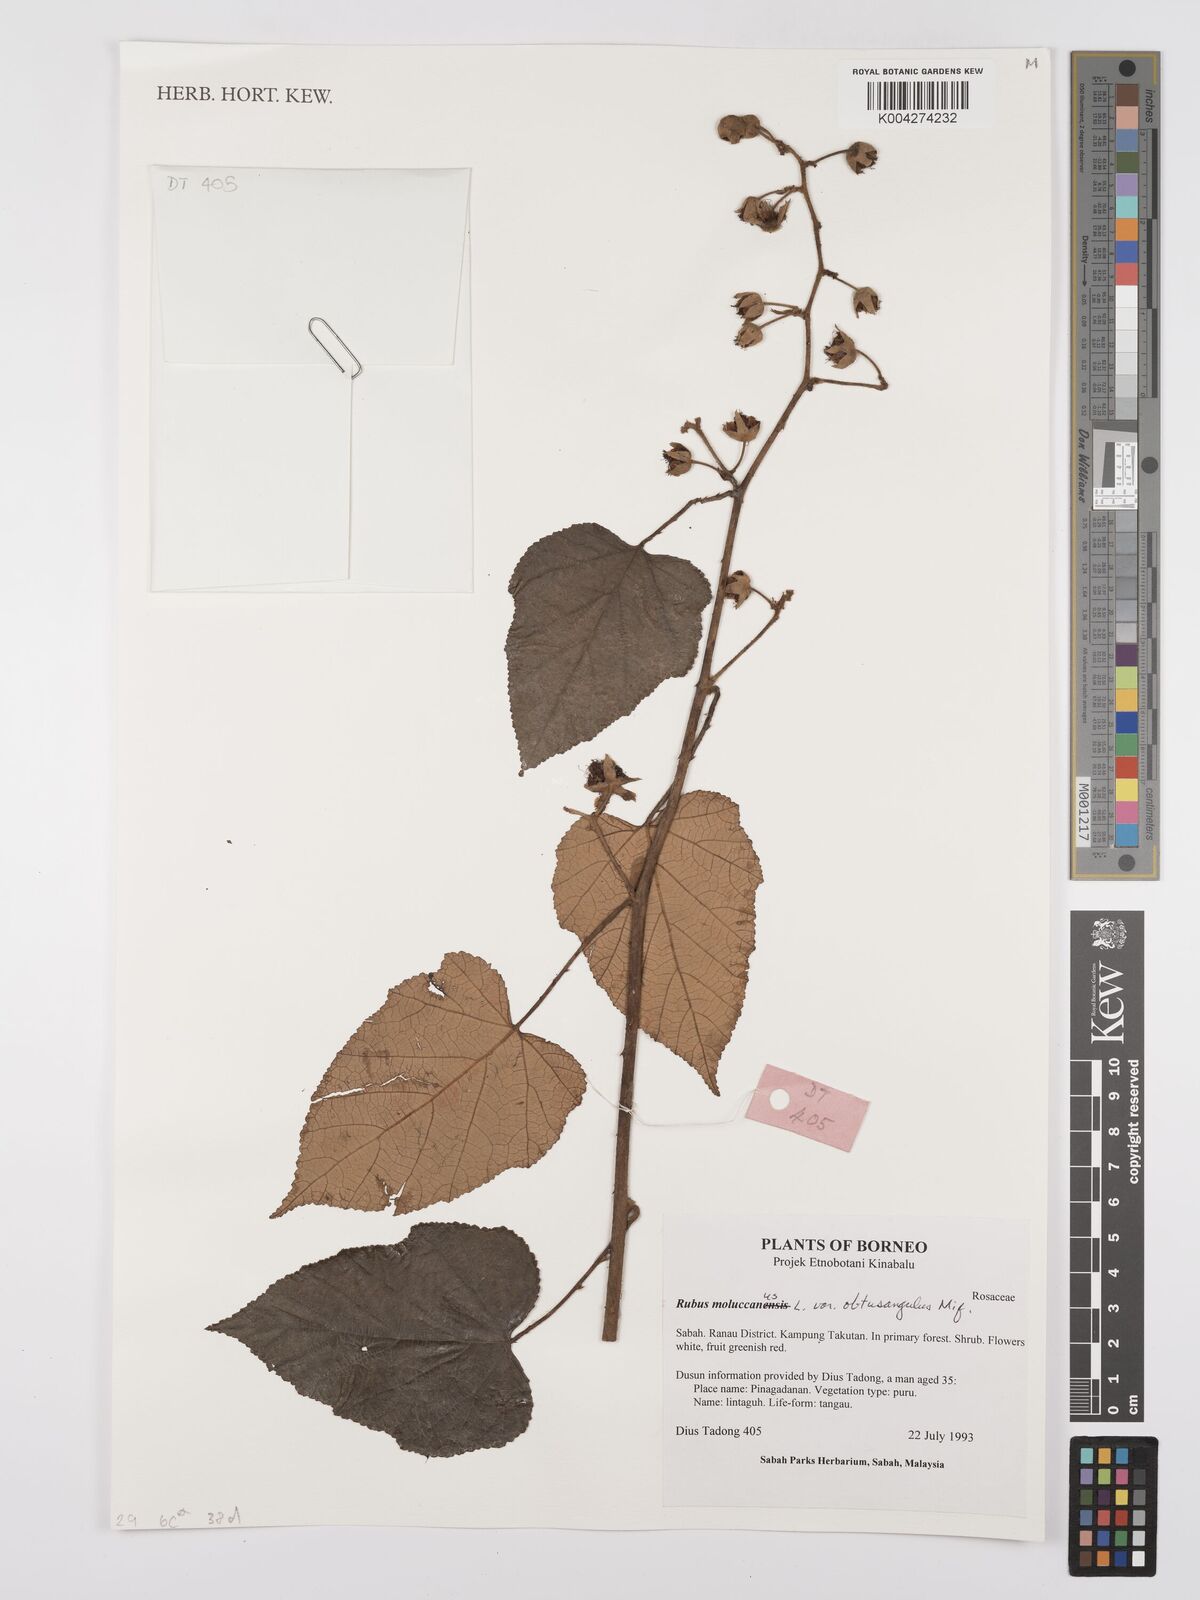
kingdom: Plantae
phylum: Tracheophyta
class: Magnoliopsida
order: Rosales
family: Rosaceae
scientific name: Rosaceae
